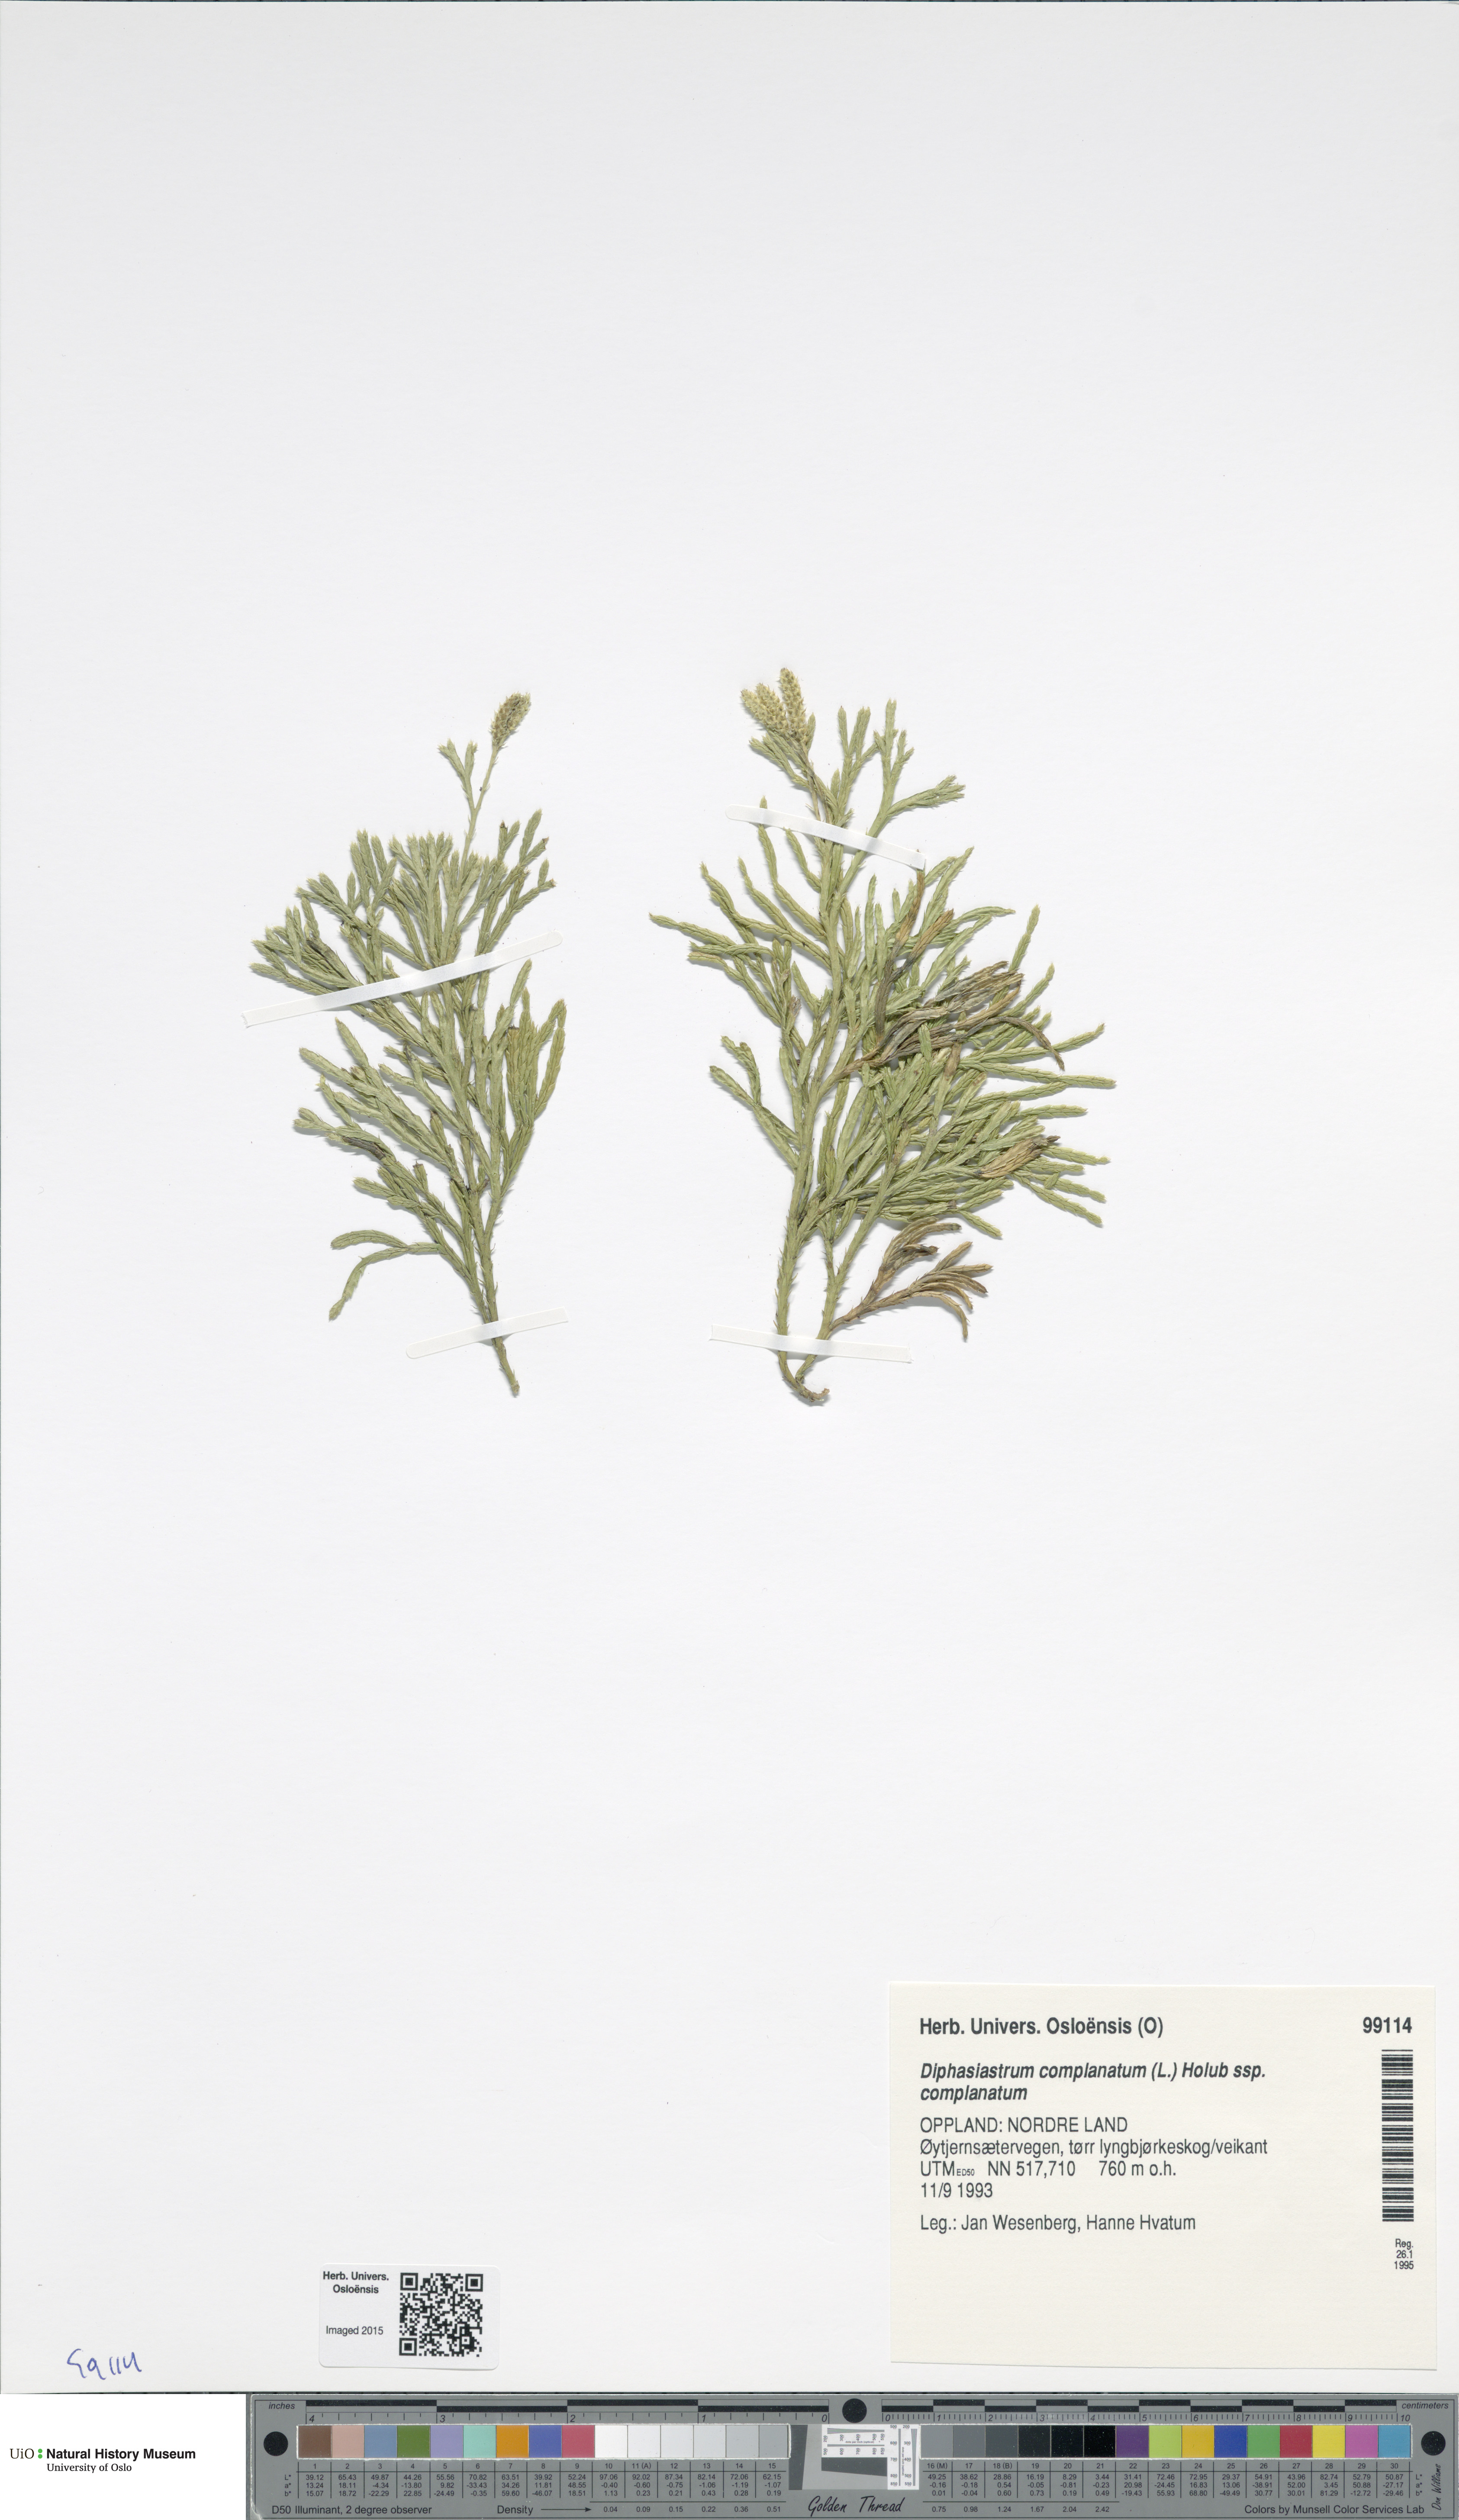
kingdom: Plantae
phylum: Tracheophyta
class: Lycopodiopsida
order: Lycopodiales
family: Lycopodiaceae
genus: Diphasiastrum
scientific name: Diphasiastrum complanatum
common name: Northern running-pine
